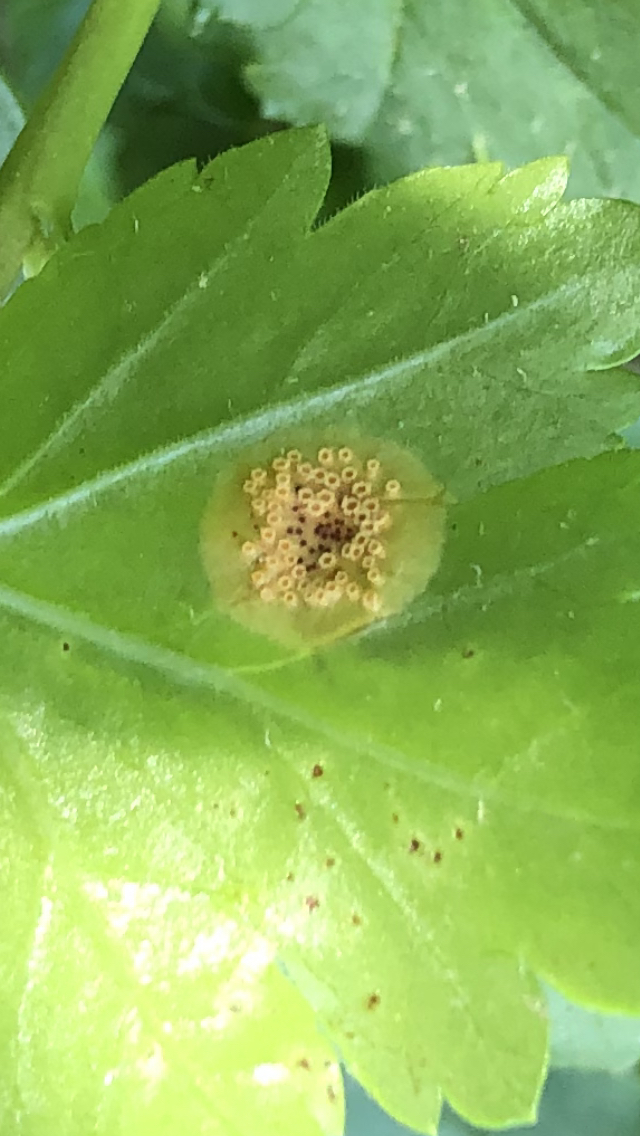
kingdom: Fungi
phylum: Basidiomycota
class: Pucciniomycetes
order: Pucciniales
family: Pucciniaceae
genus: Puccinia
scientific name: Puccinia caricina
